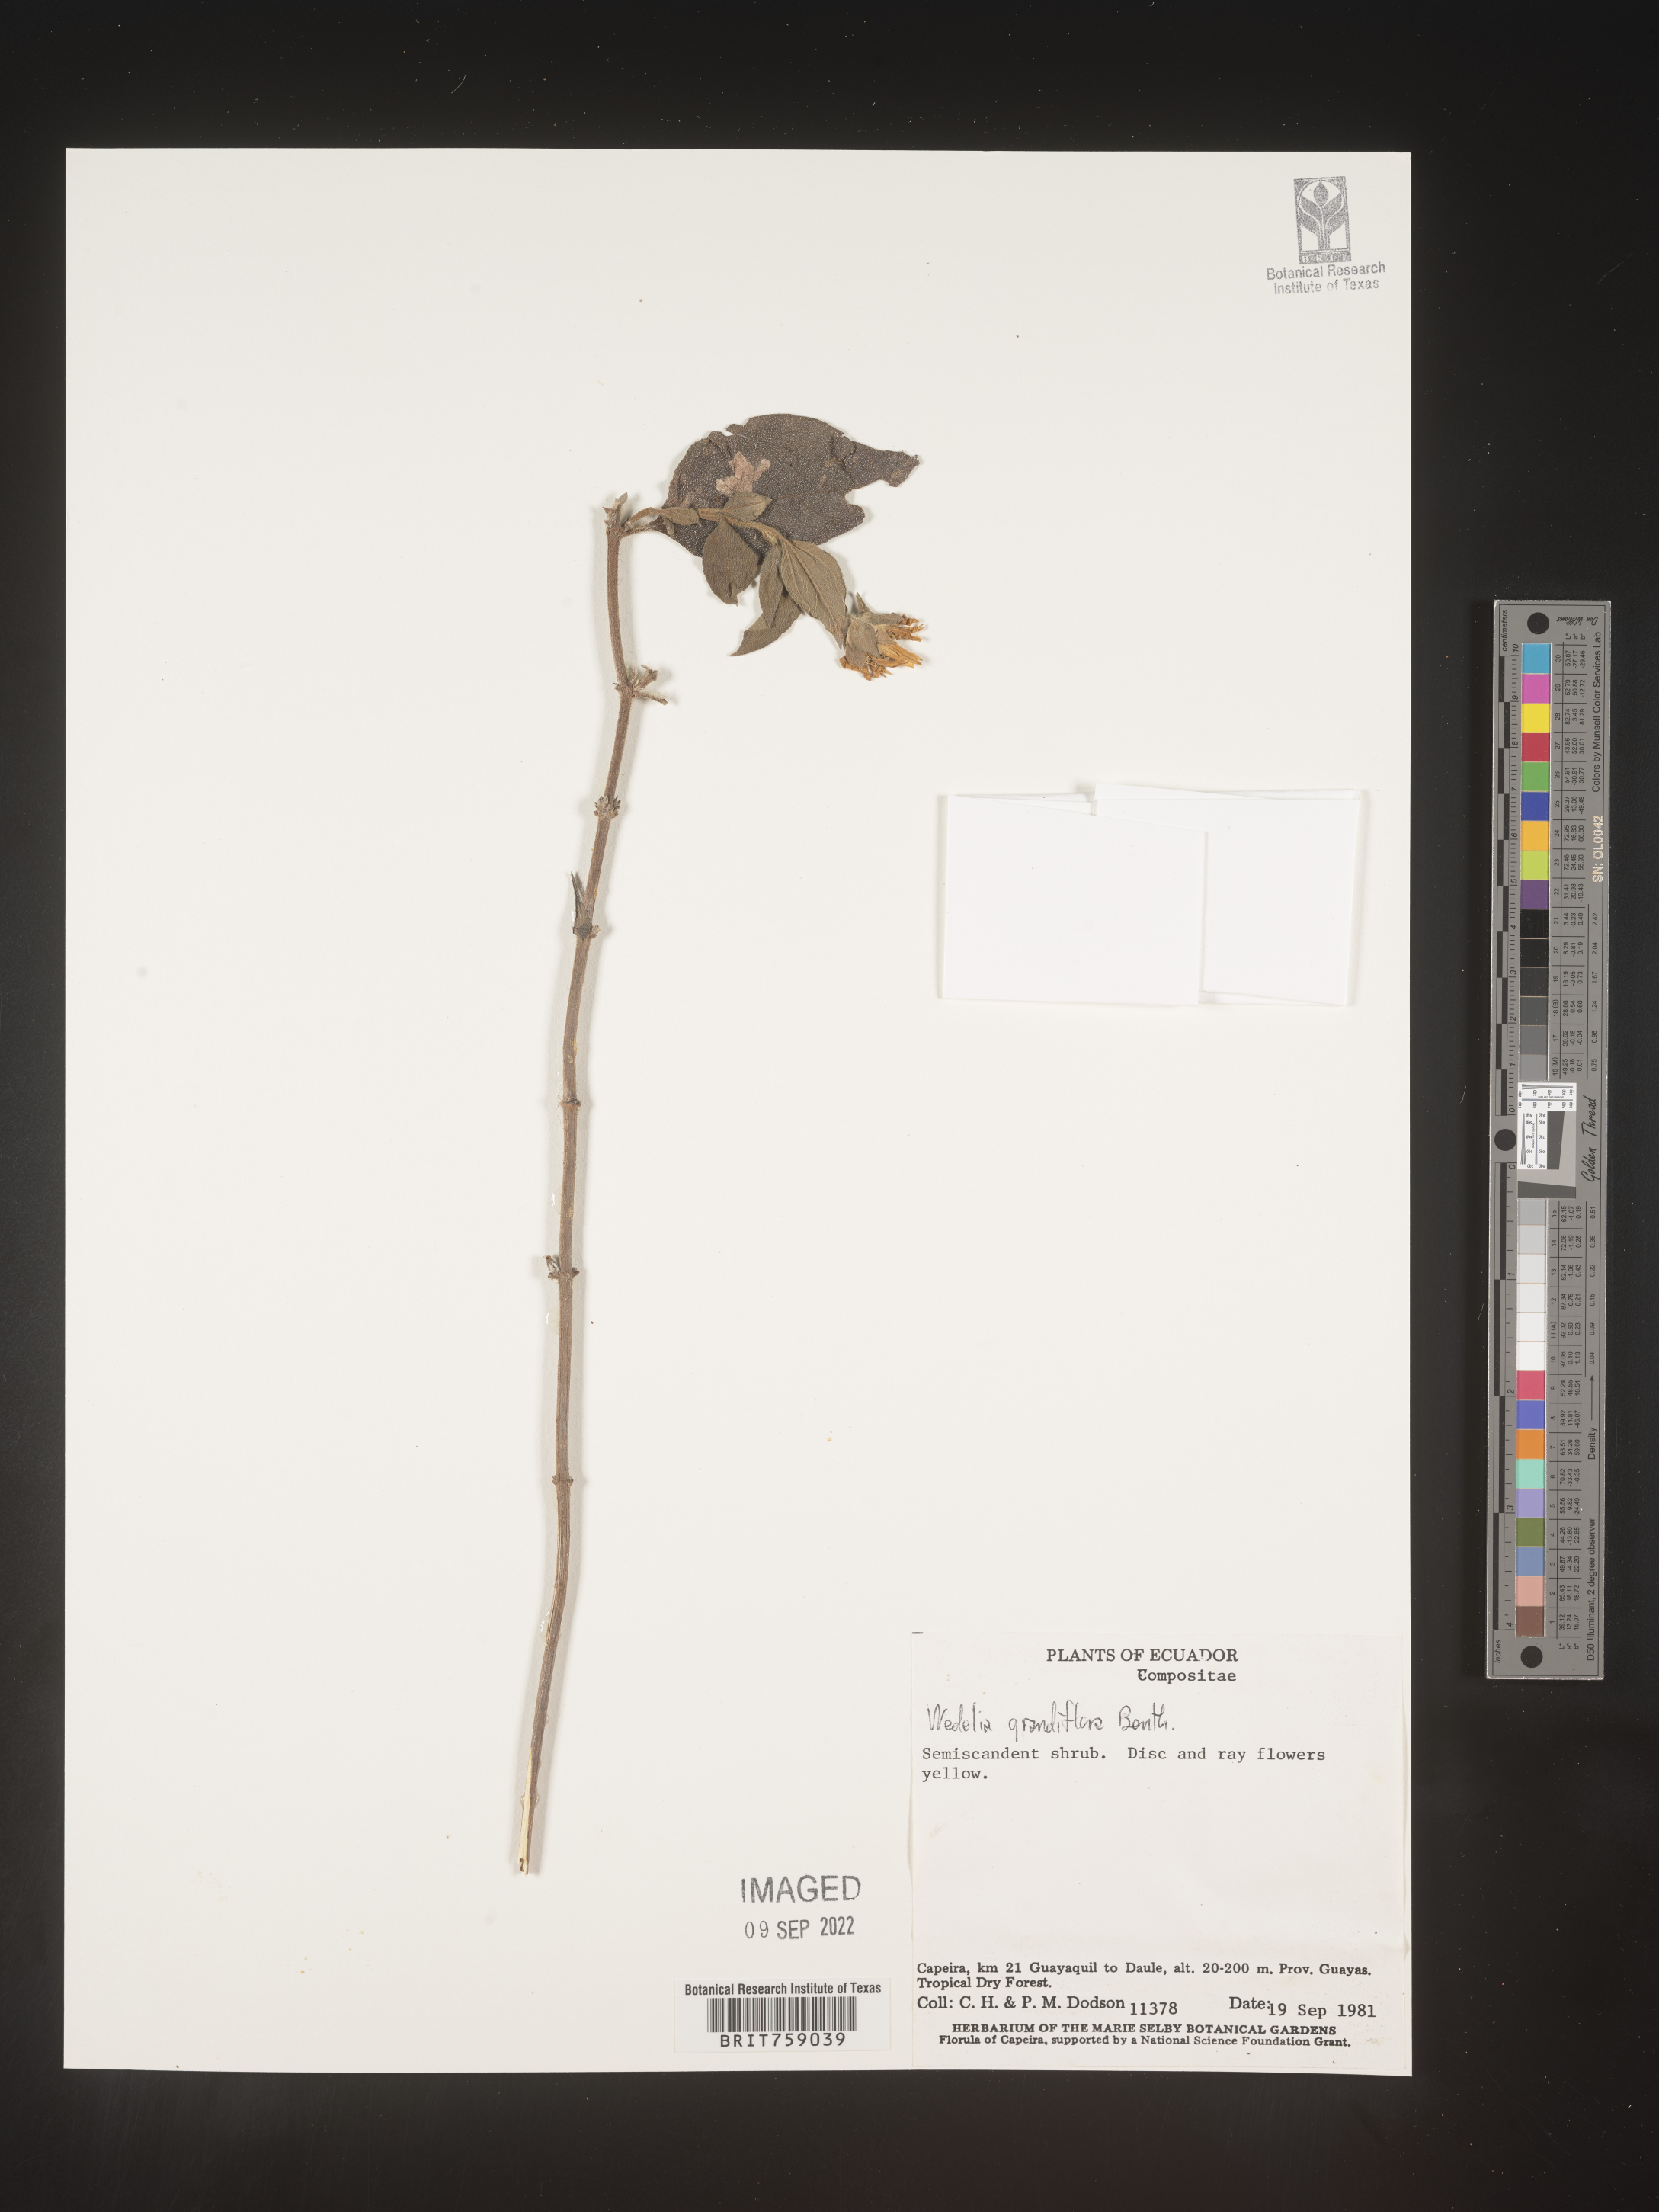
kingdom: Plantae
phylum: Tracheophyta
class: Magnoliopsida
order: Asterales
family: Asteraceae
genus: Wedelia
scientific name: Wedelia
